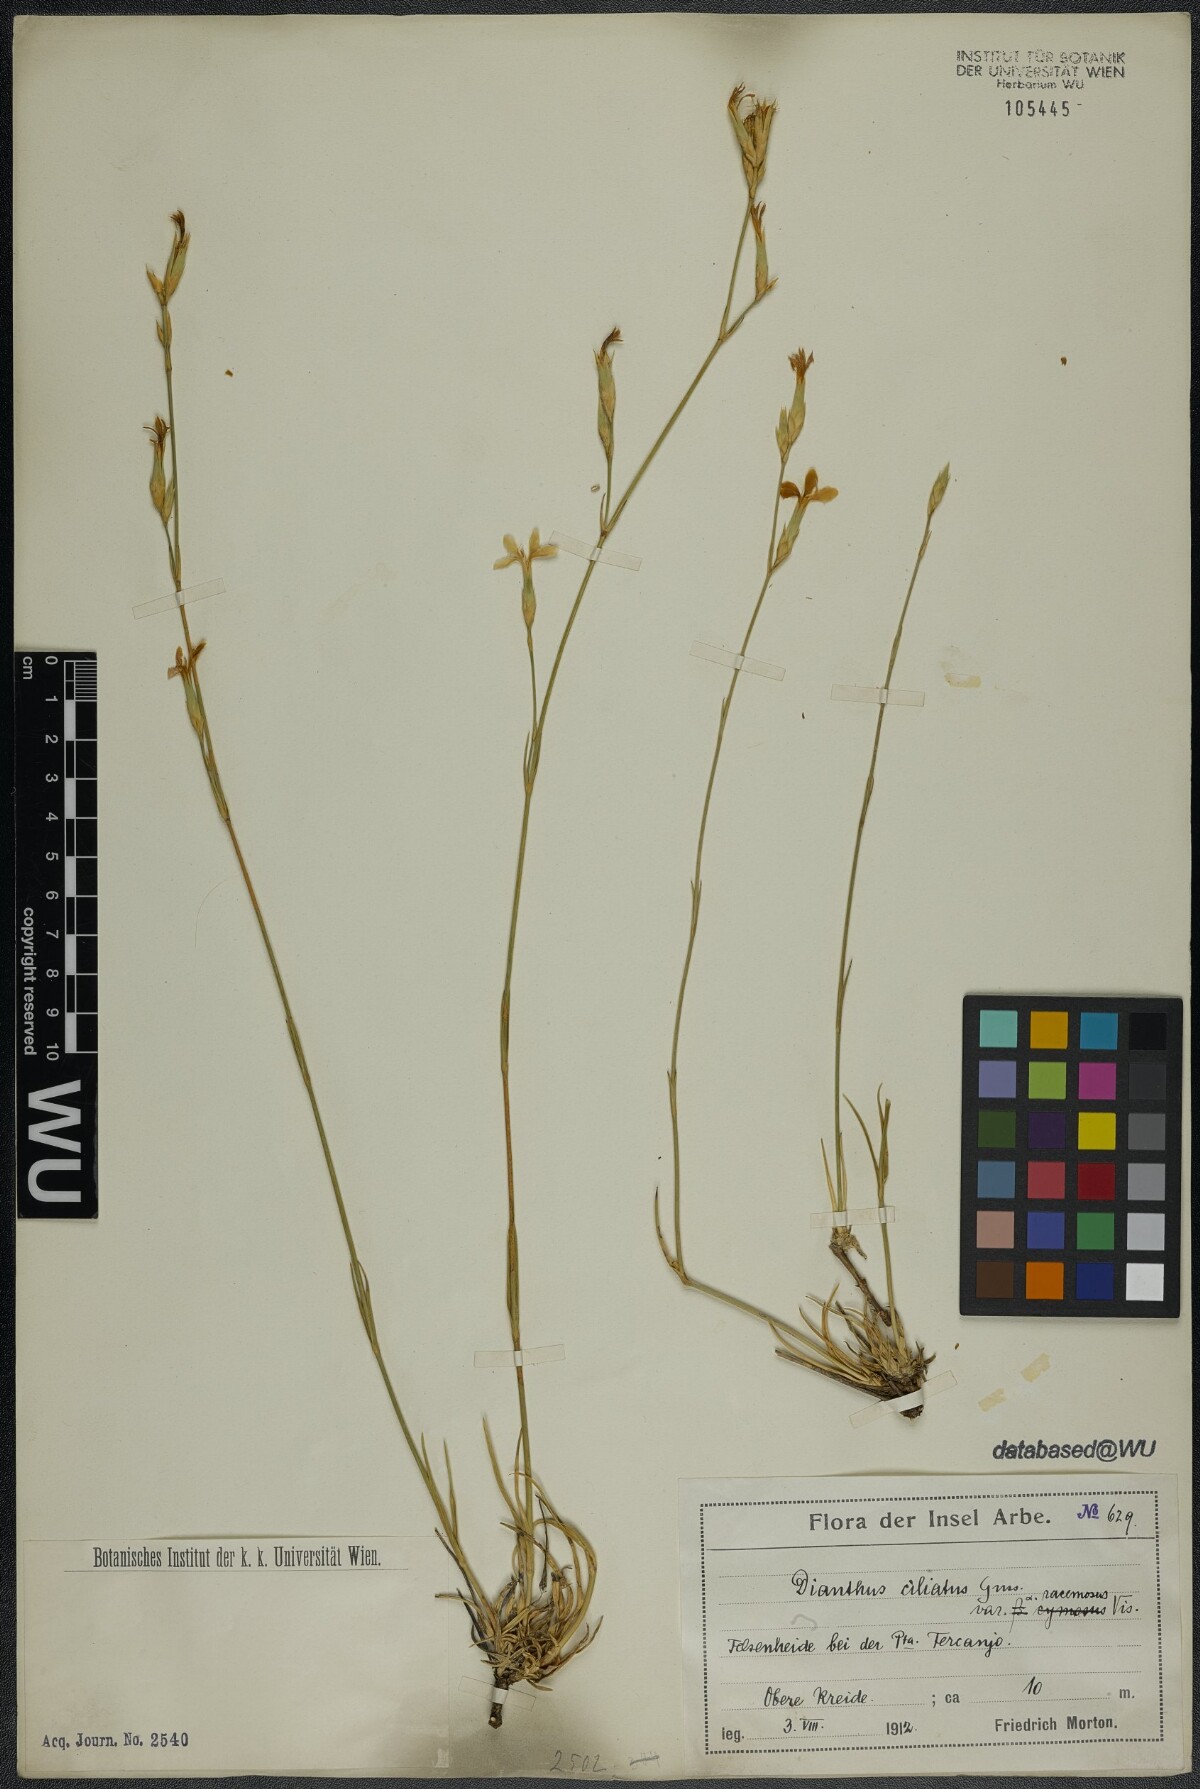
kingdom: Plantae
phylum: Tracheophyta
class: Magnoliopsida
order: Caryophyllales
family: Caryophyllaceae
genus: Dianthus
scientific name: Dianthus ciliatus
